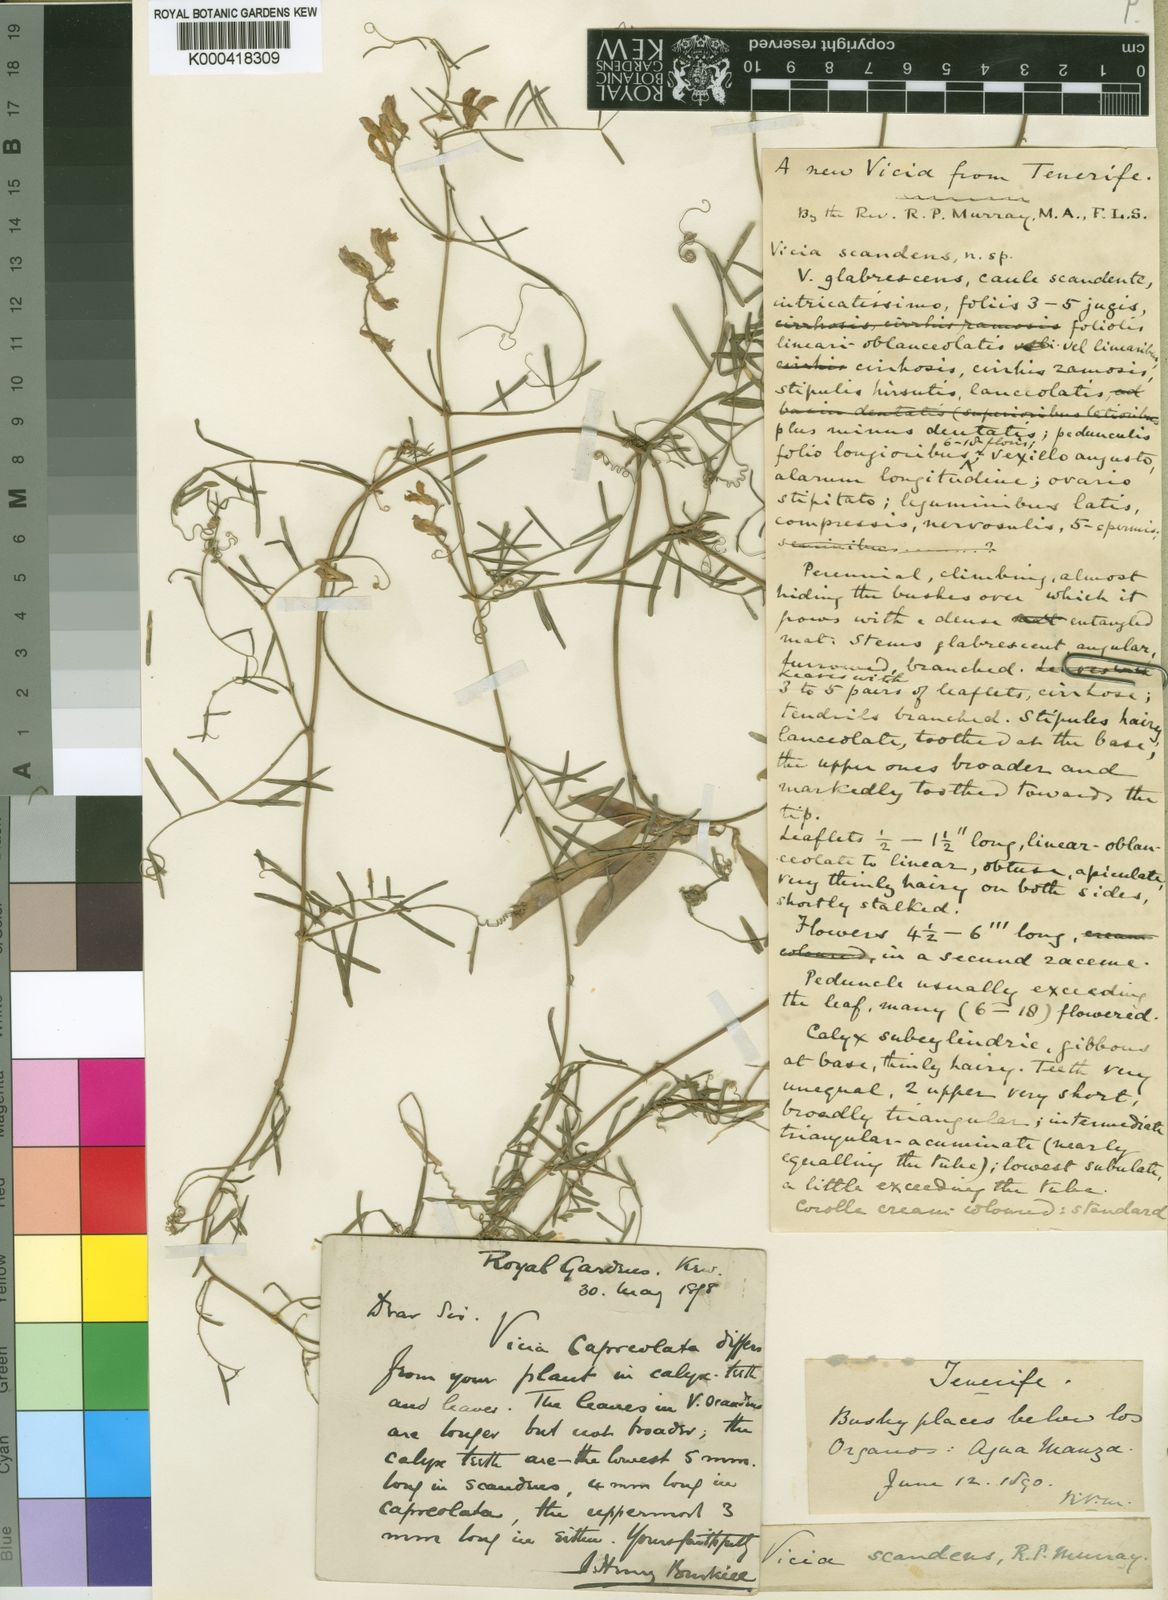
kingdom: Plantae
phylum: Tracheophyta
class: Magnoliopsida
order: Fabales
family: Fabaceae
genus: Vicia
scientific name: Vicia scandens
